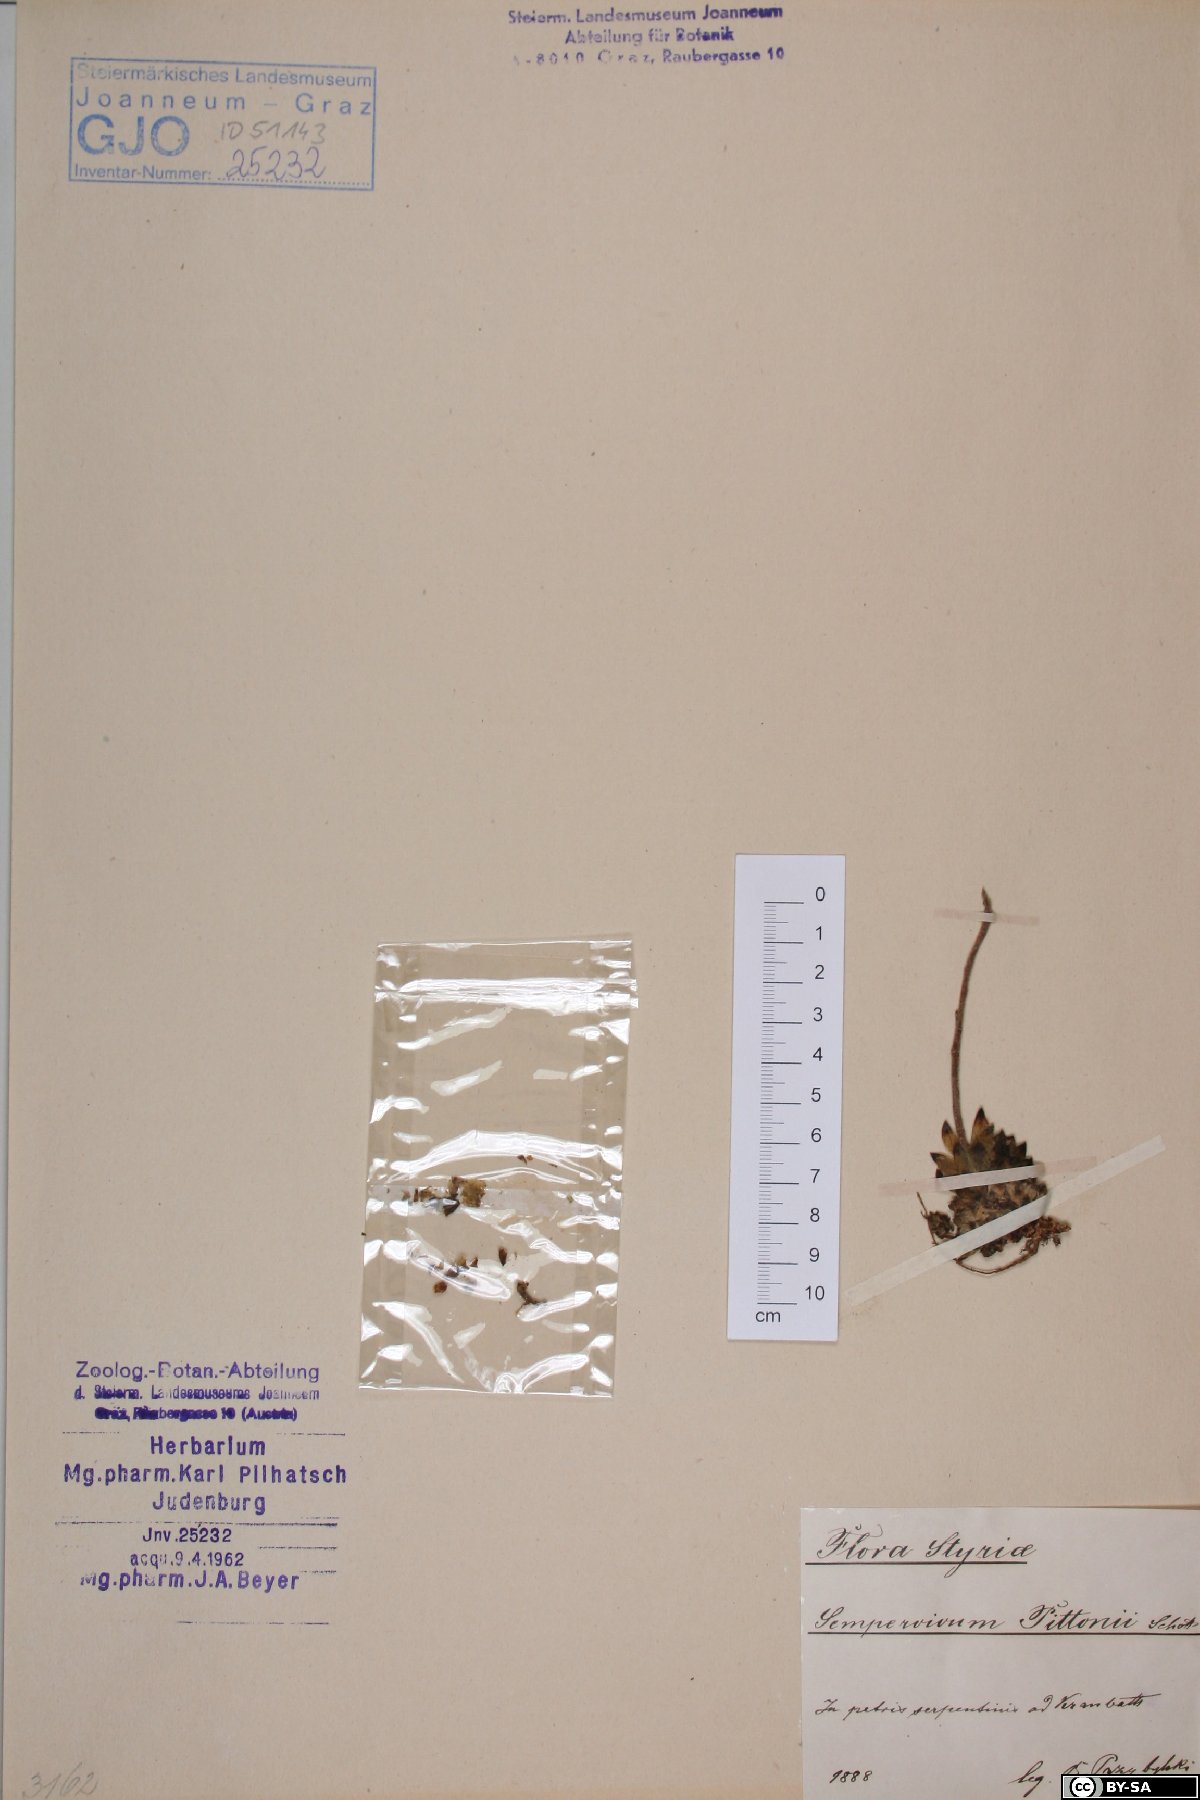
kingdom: Plantae
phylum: Tracheophyta
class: Magnoliopsida
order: Saxifragales
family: Crassulaceae
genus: Sempervivum
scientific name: Sempervivum pittonii
